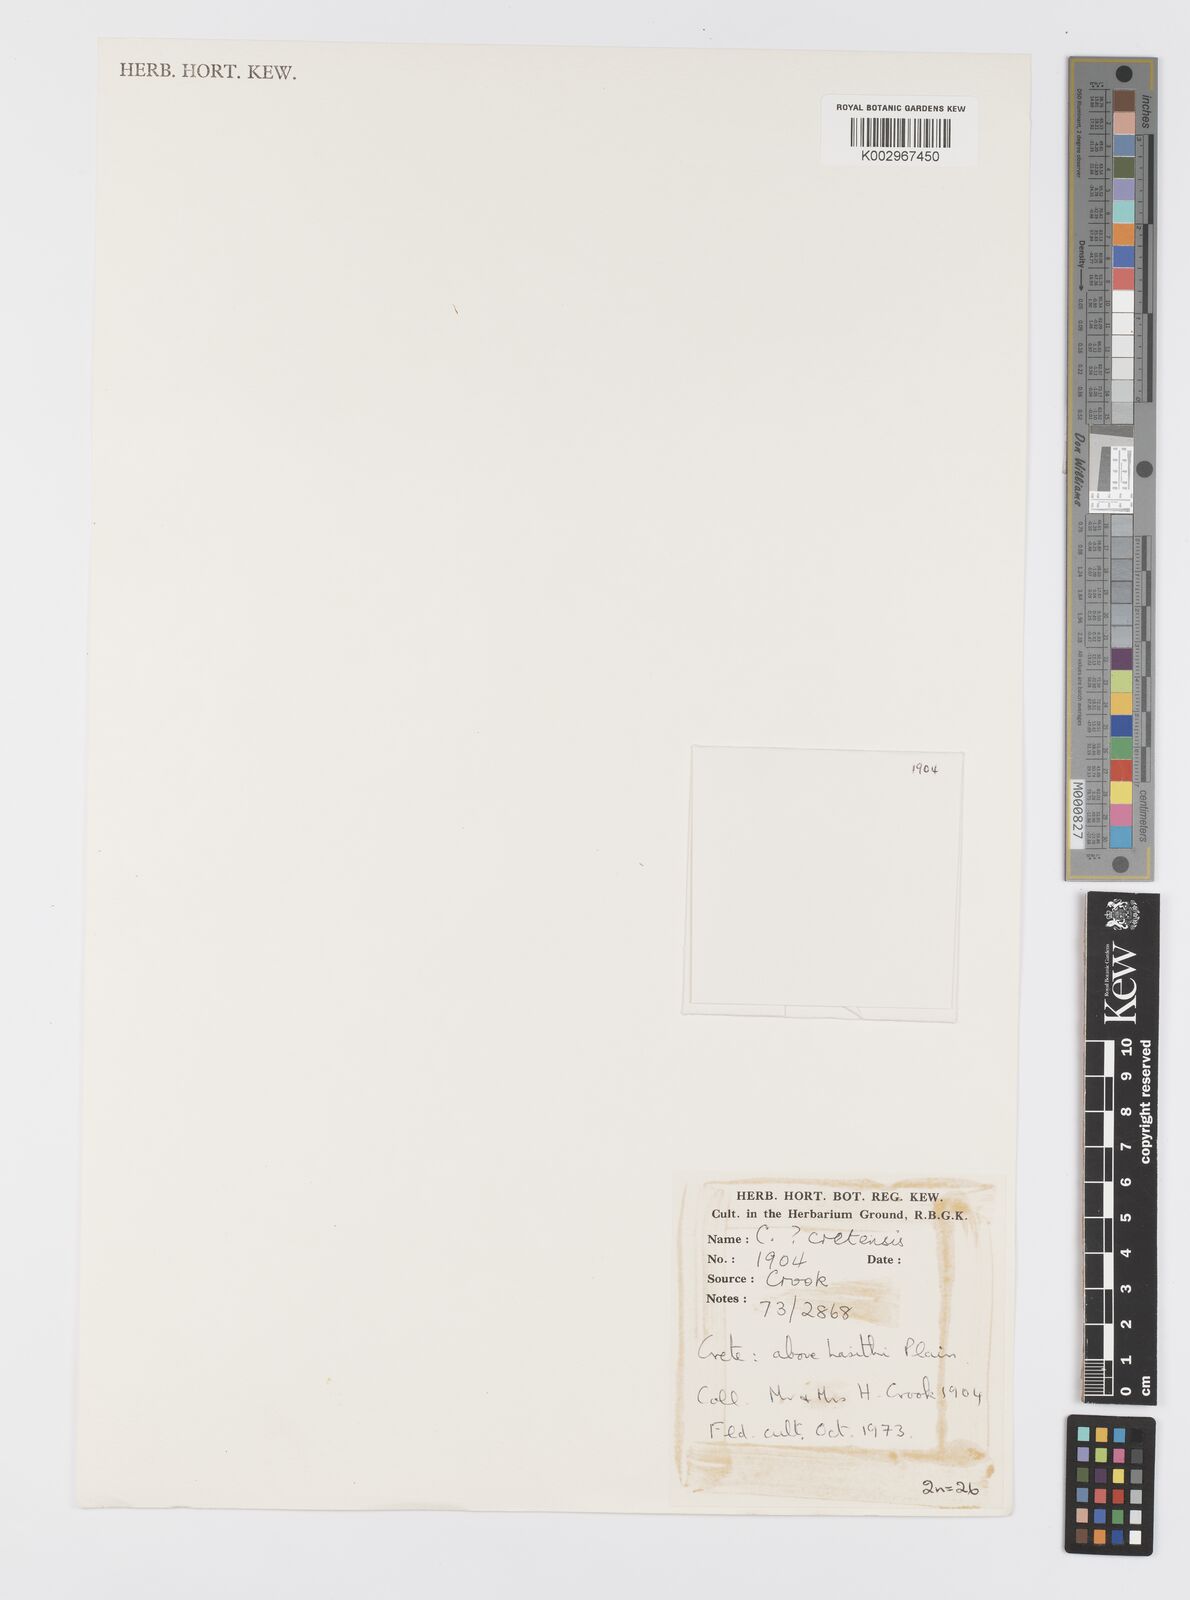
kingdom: Plantae
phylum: Tracheophyta
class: Liliopsida
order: Asparagales
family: Iridaceae
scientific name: Iridaceae
